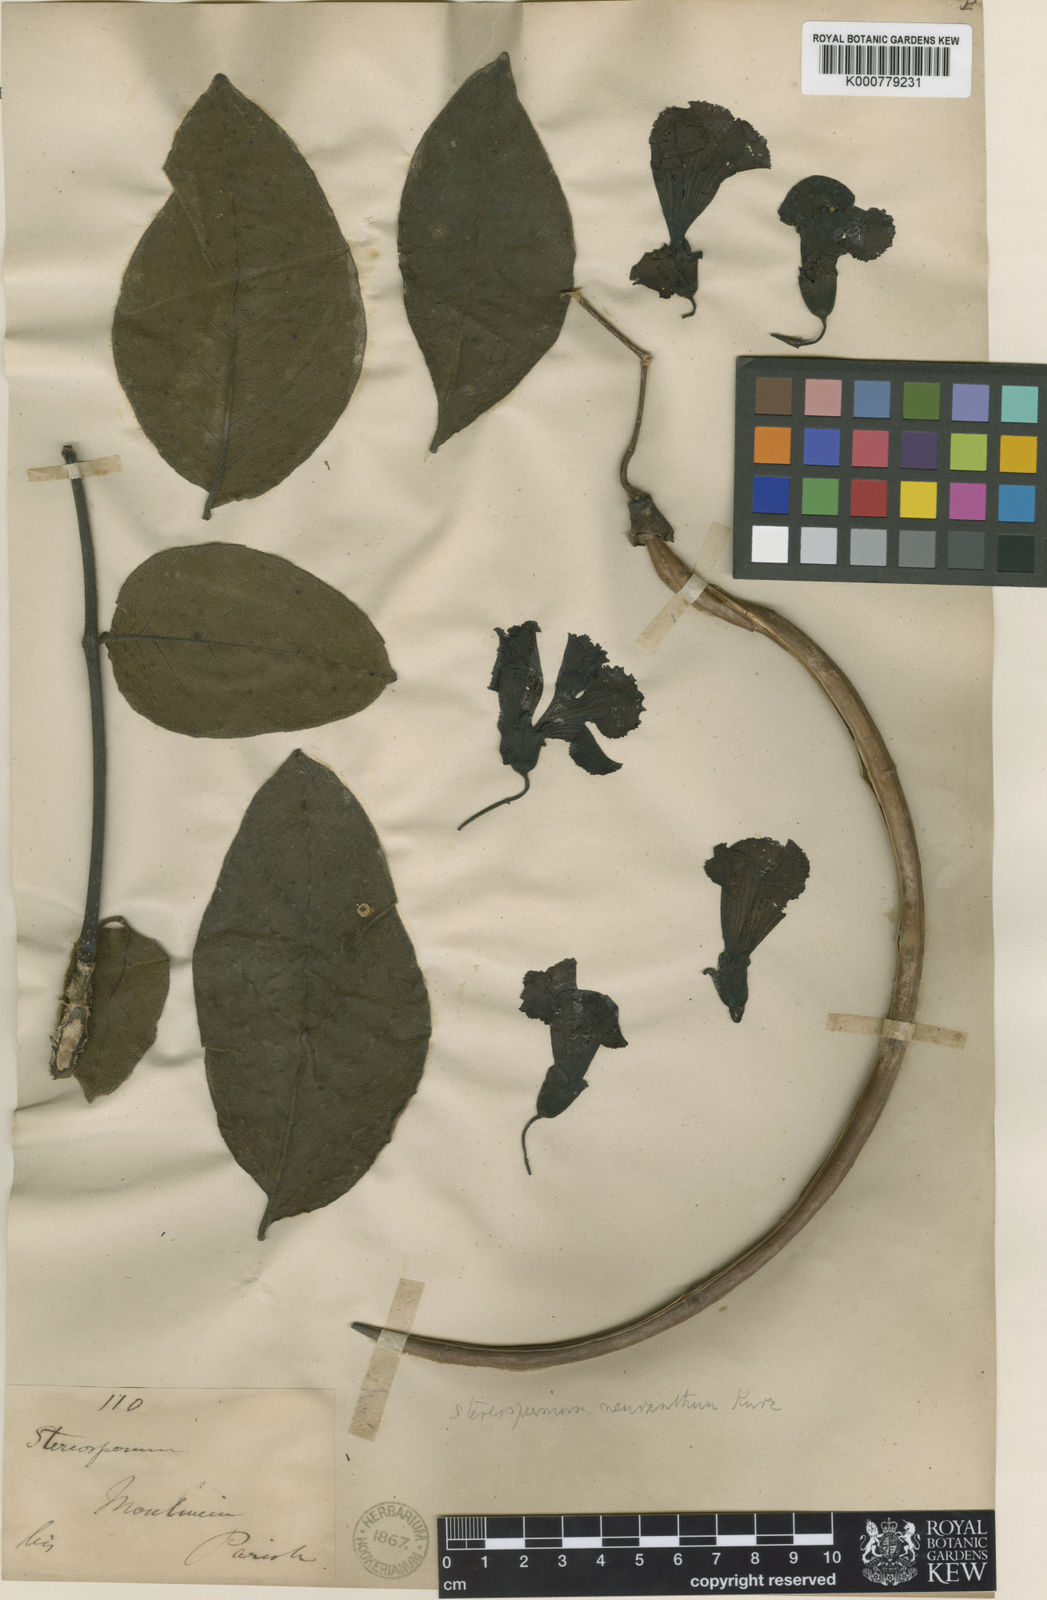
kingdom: Plantae
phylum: Tracheophyta
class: Magnoliopsida
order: Lamiales
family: Bignoniaceae
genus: Stereospermum
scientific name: Stereospermum neuranthum
